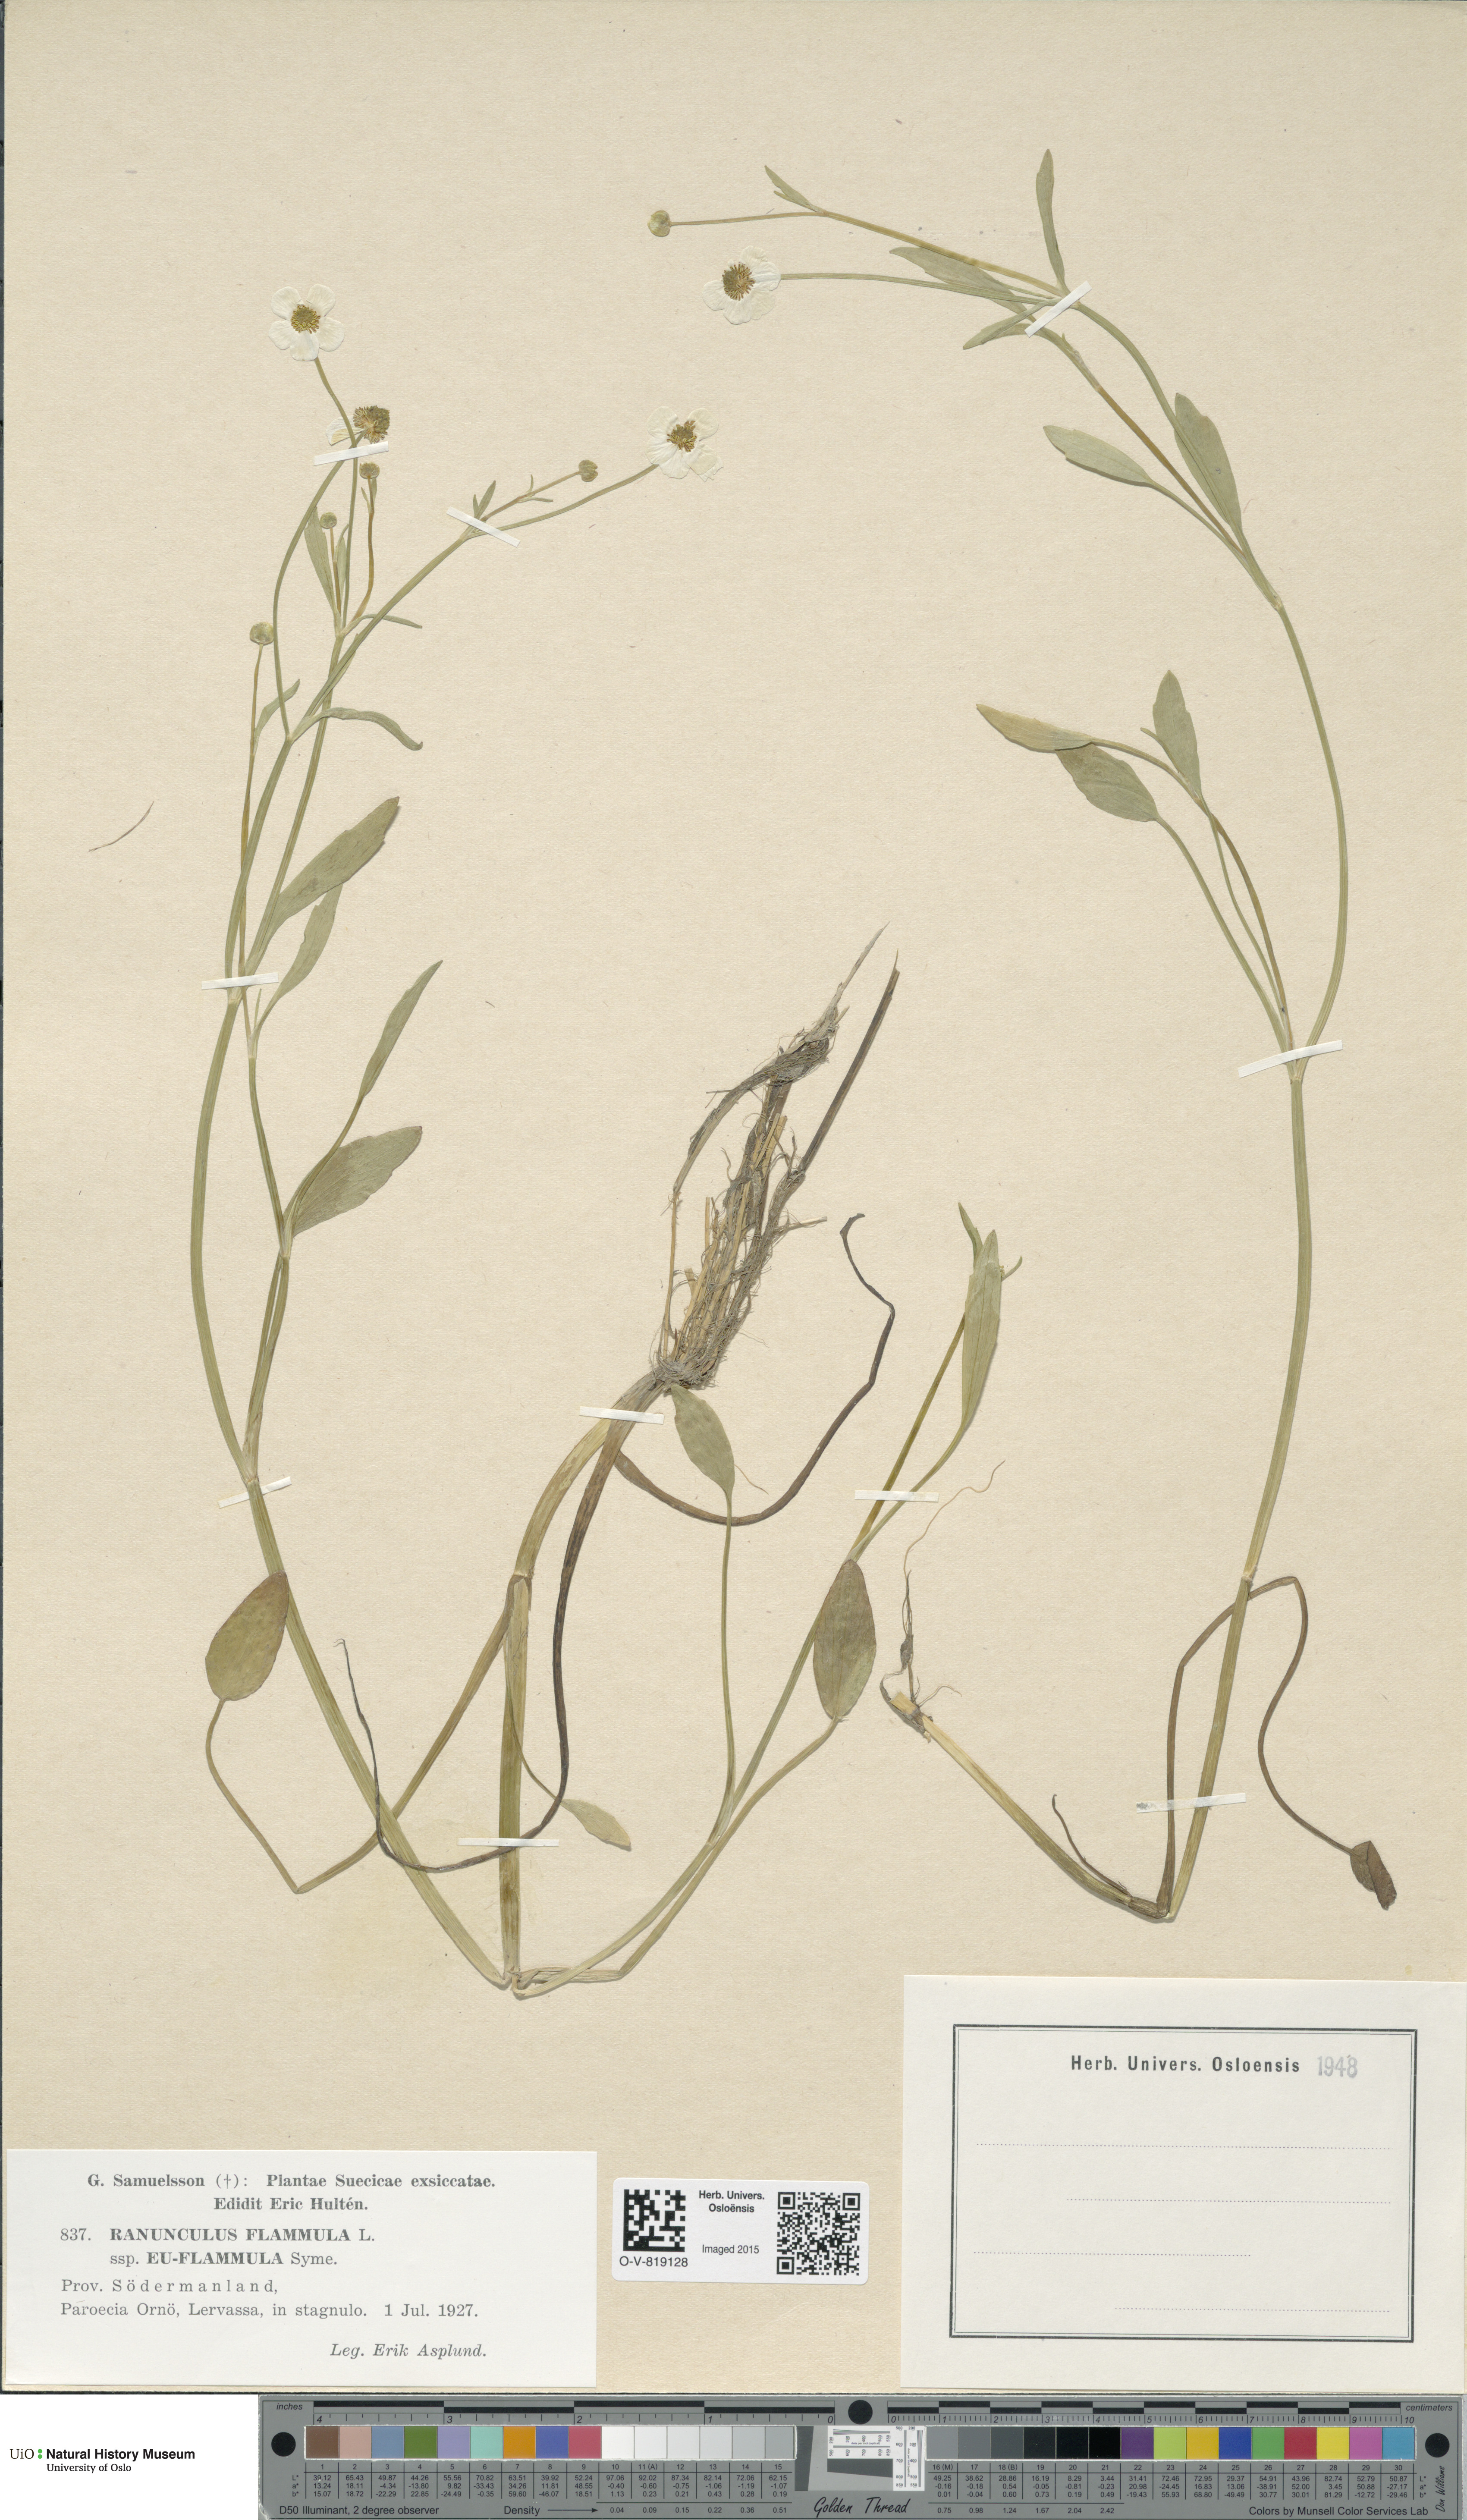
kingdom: Plantae
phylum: Tracheophyta
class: Magnoliopsida
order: Ranunculales
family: Ranunculaceae
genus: Ranunculus
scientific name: Ranunculus flammula
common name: Lesser spearwort
